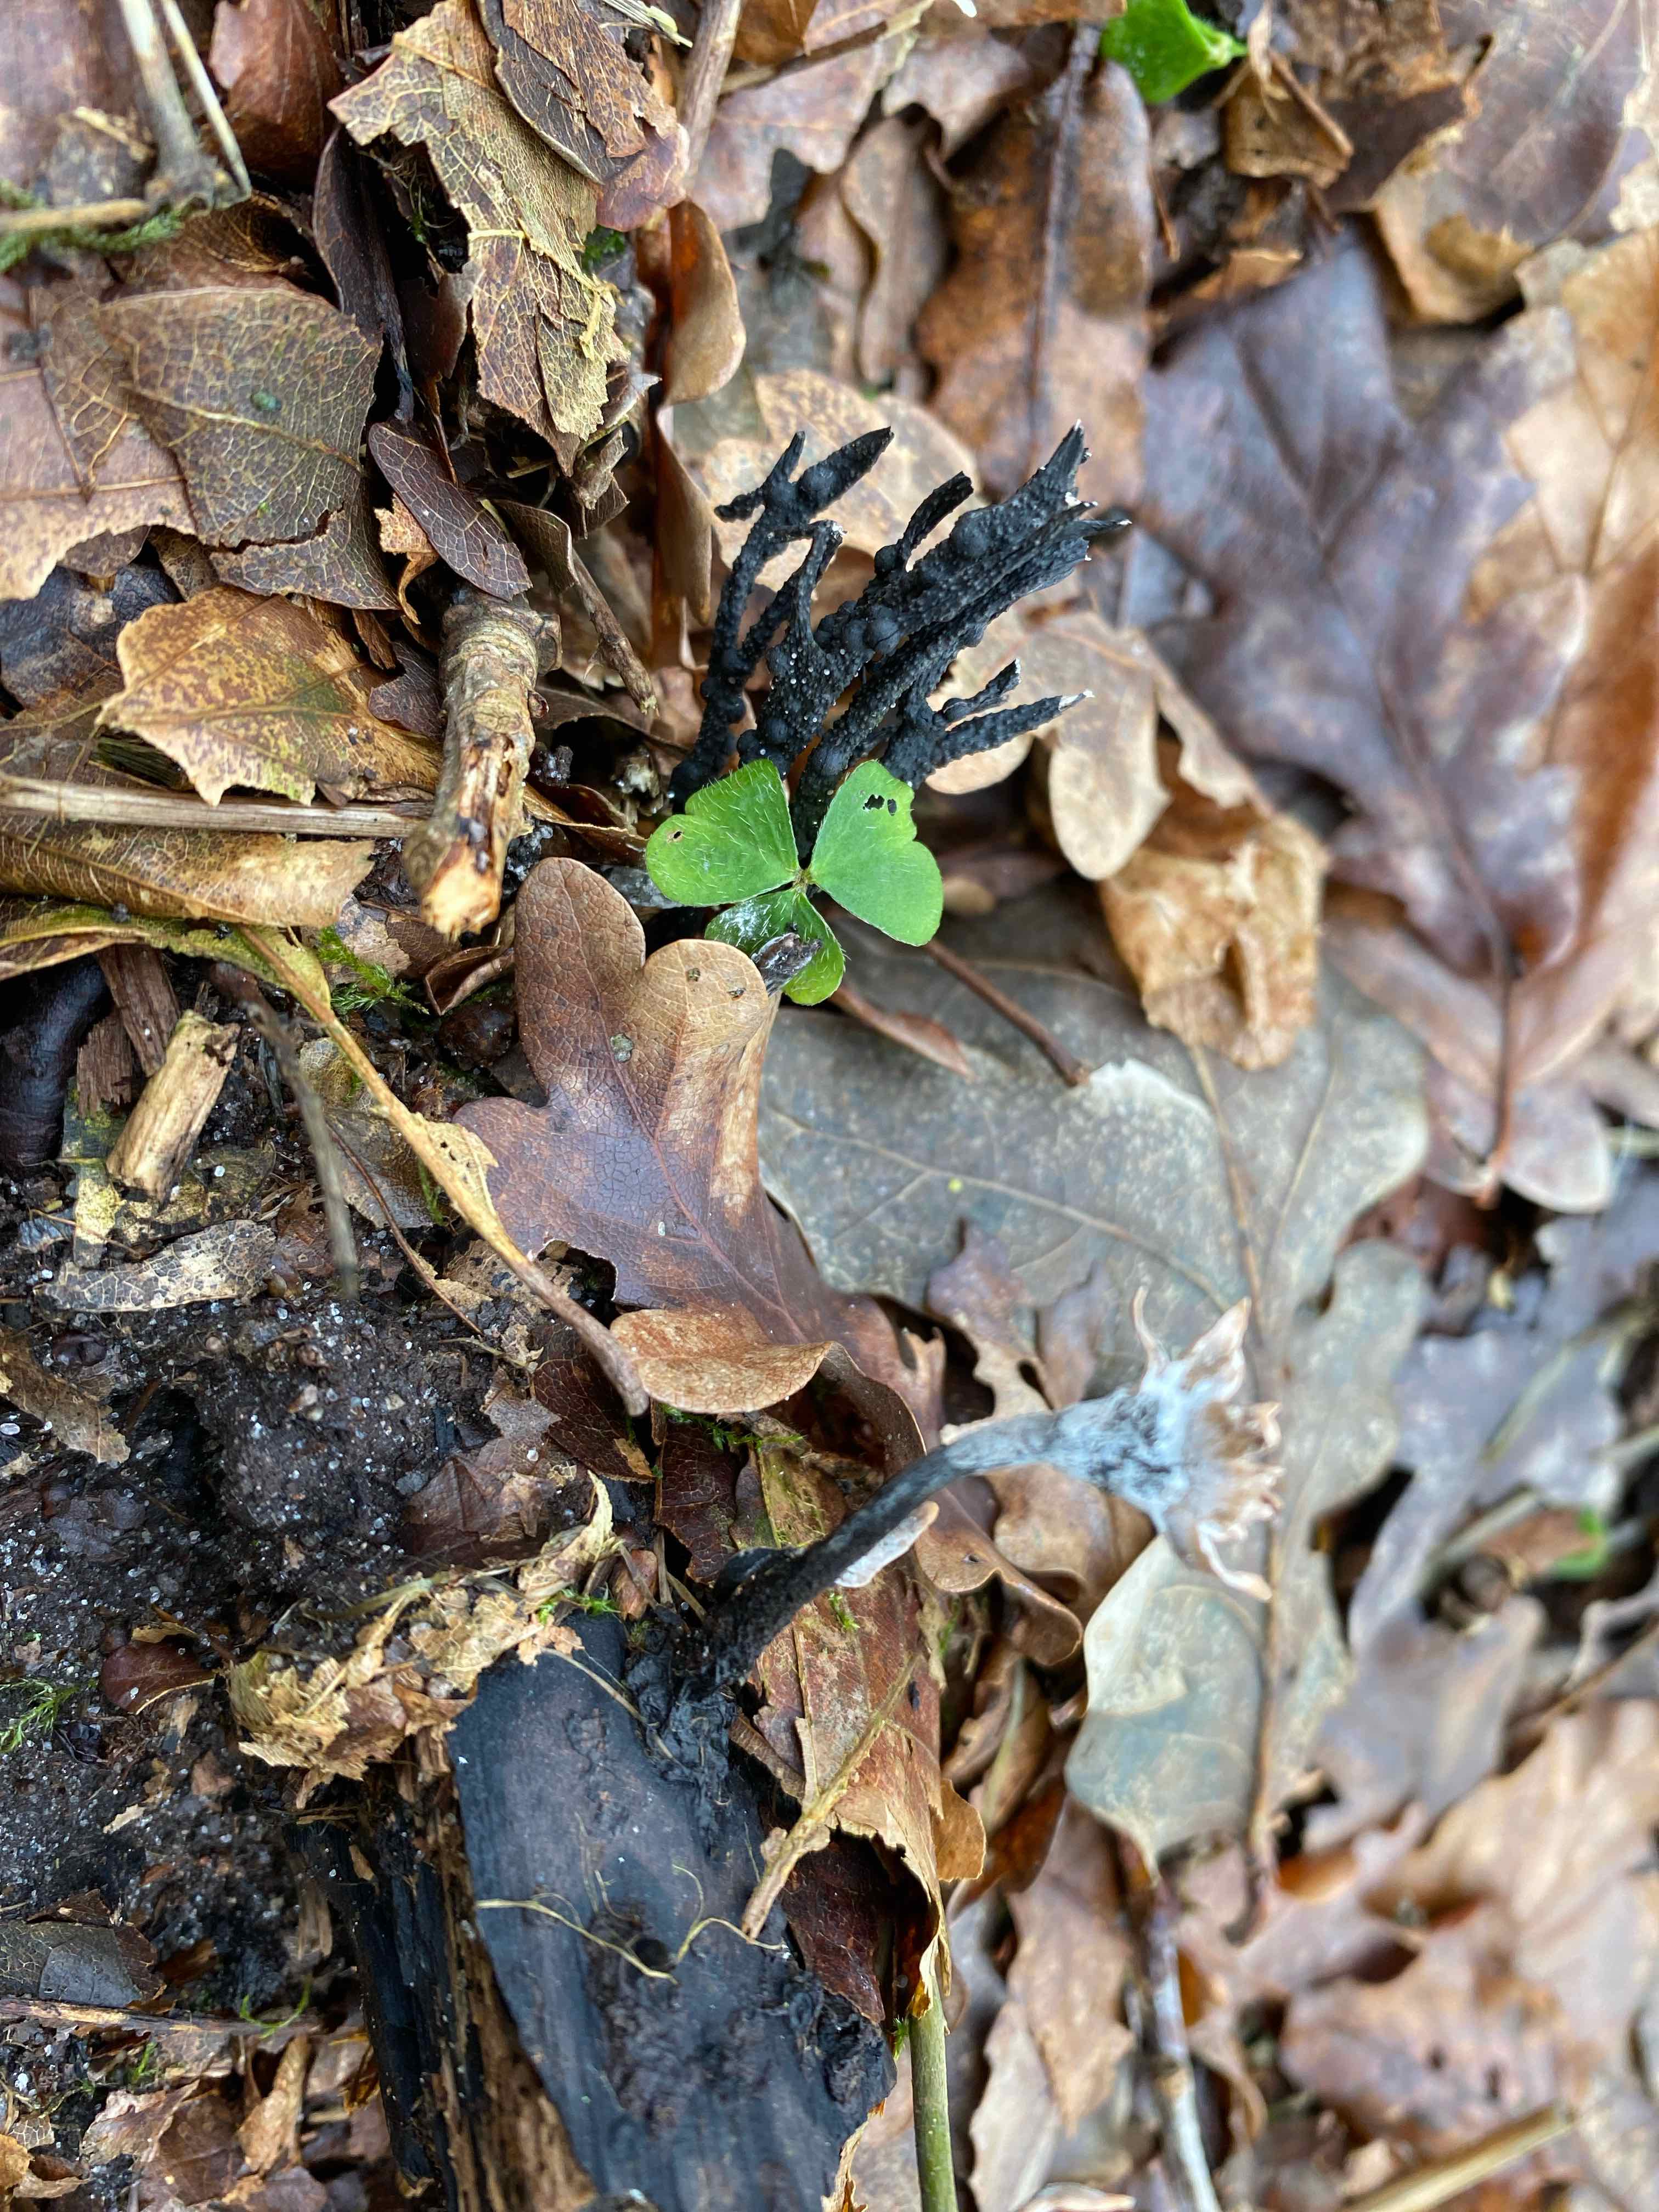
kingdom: Fungi
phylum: Ascomycota
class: Sordariomycetes
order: Xylariales
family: Xylariaceae
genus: Xylaria
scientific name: Xylaria hypoxylon
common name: grenet stødsvamp
